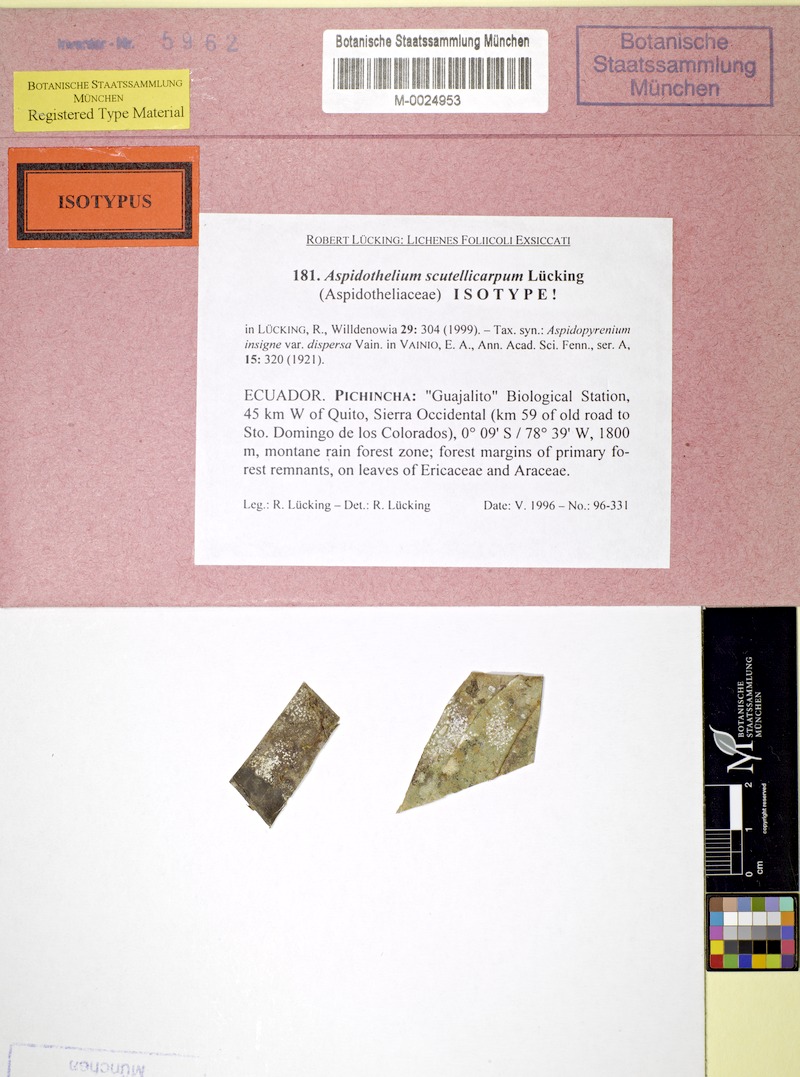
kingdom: Fungi
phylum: Ascomycota
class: Lecanoromycetes
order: Ostropales
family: Thelenellaceae
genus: Aspidothelium
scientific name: Aspidothelium scutellicarpum
